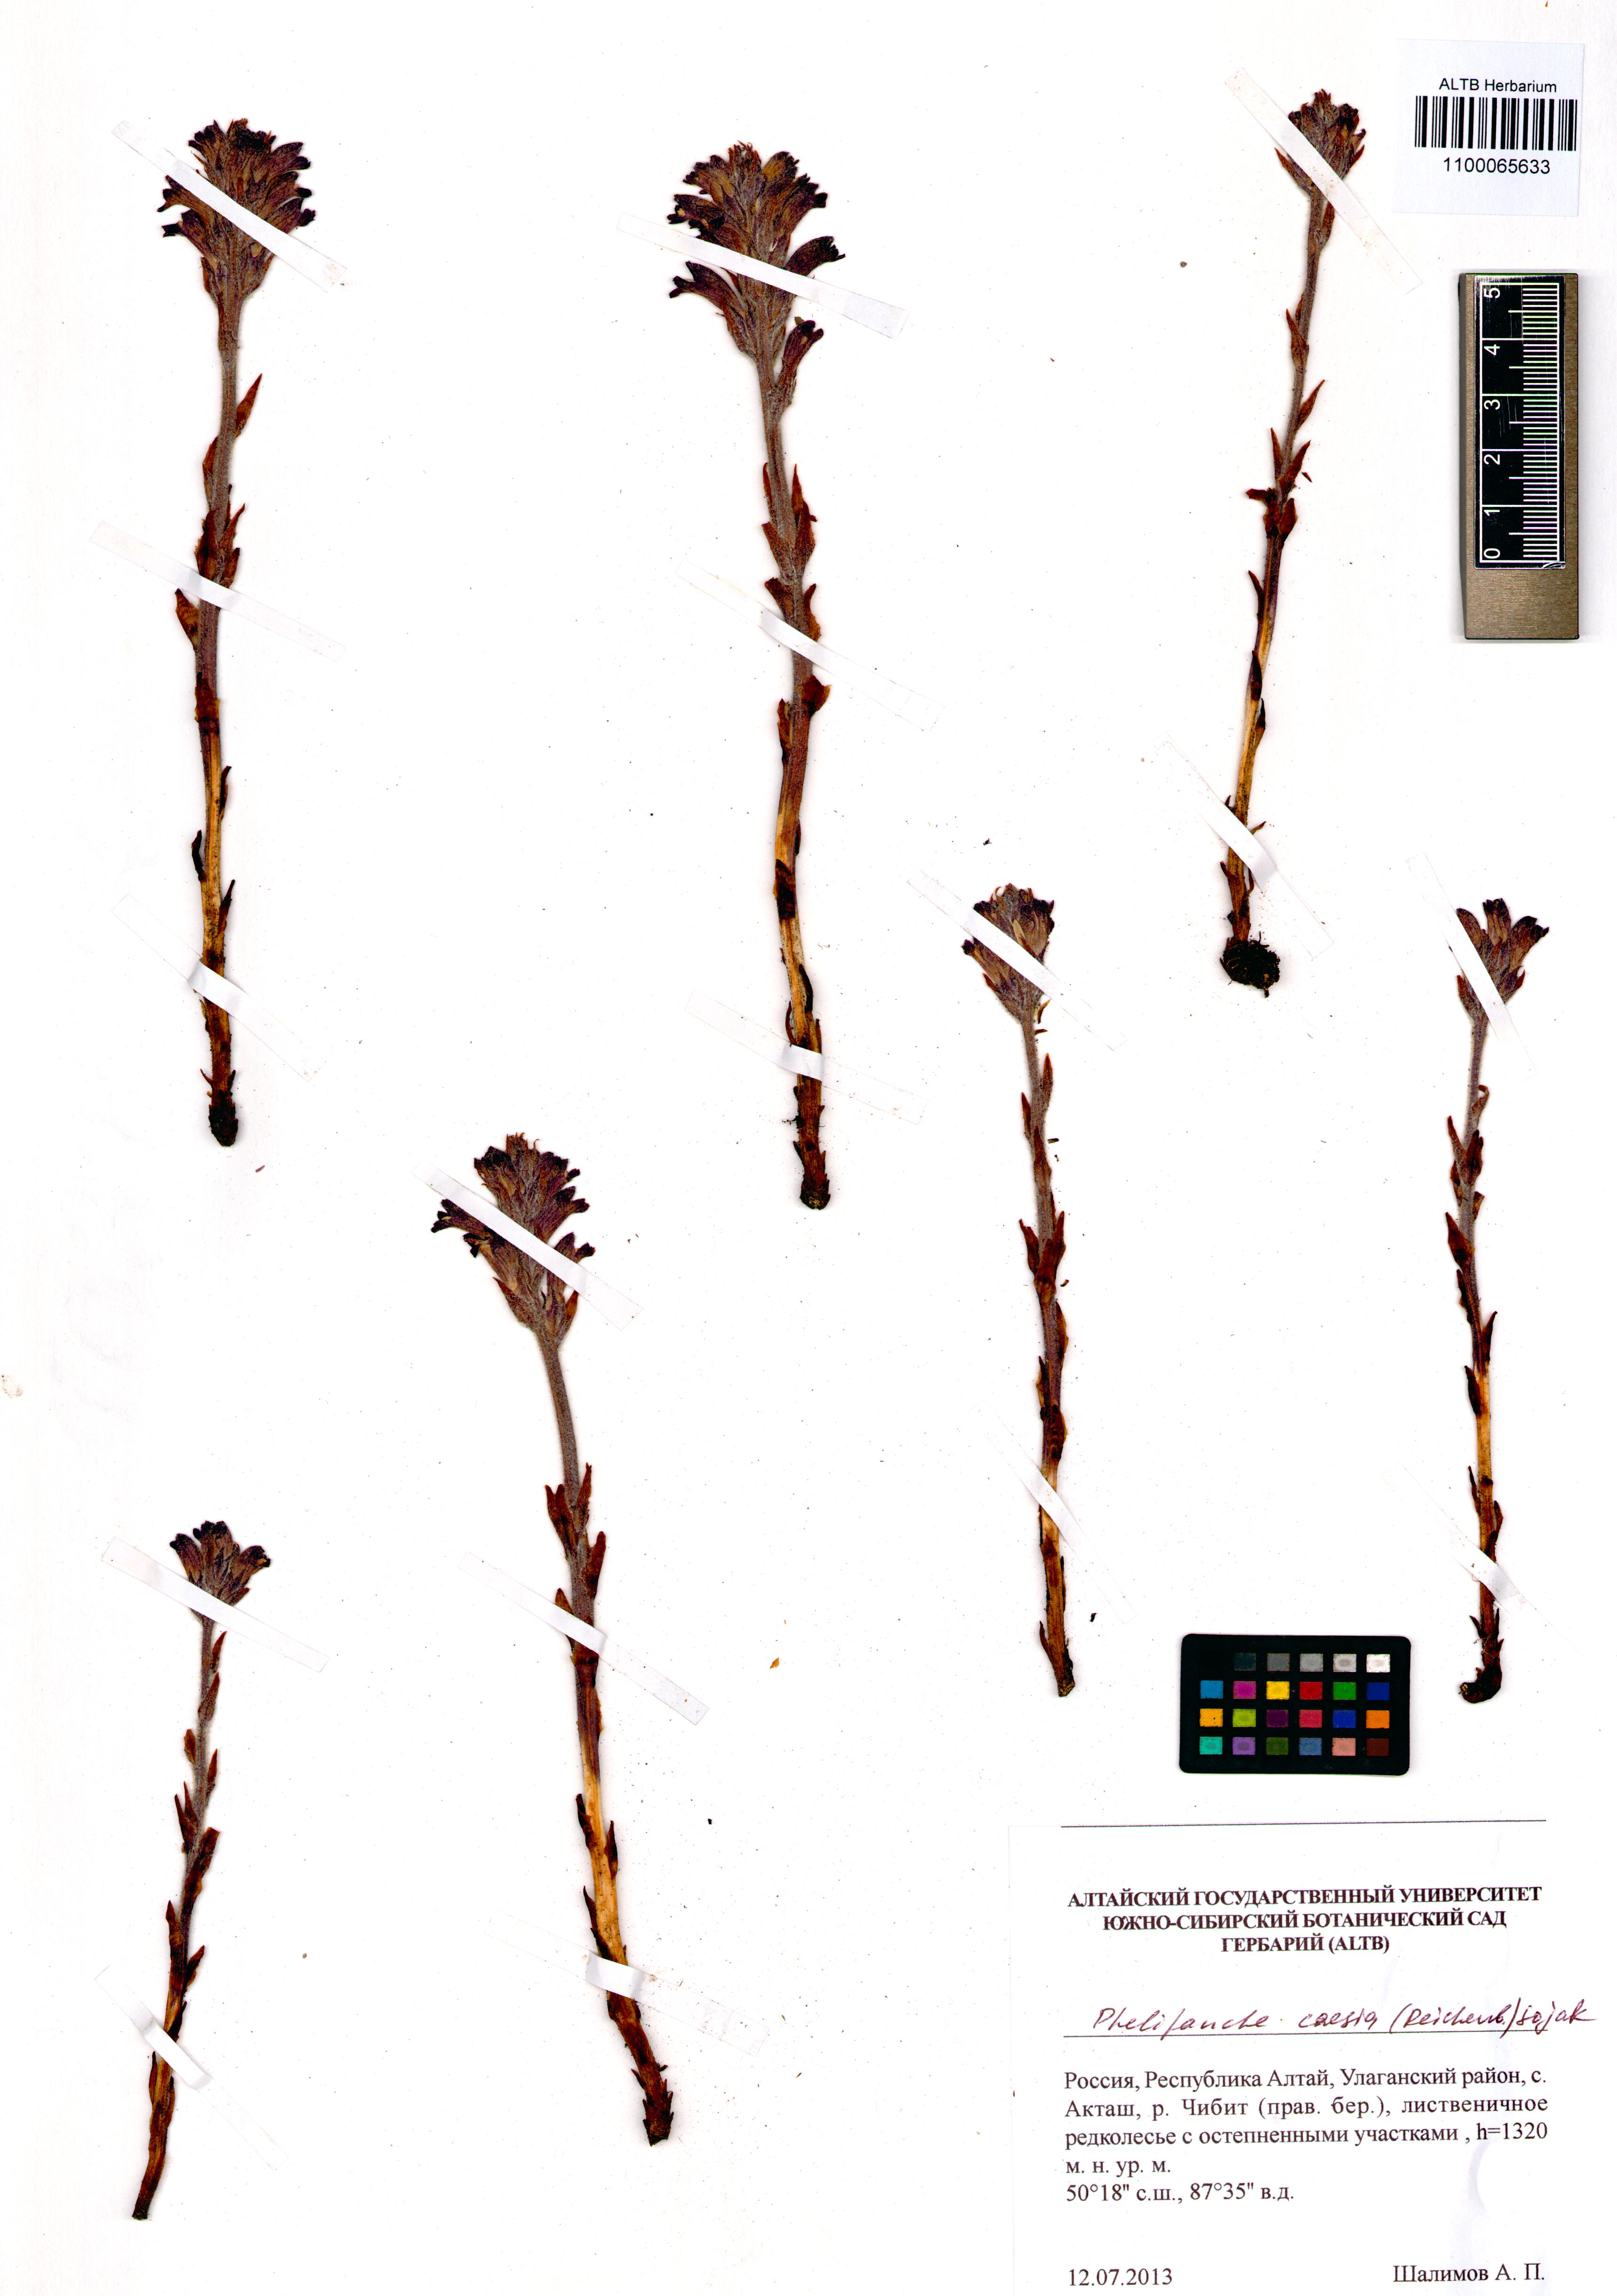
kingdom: Plantae
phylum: Tracheophyta
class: Magnoliopsida
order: Lamiales
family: Orobanchaceae
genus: Phelipanche
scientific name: Phelipanche caesia
